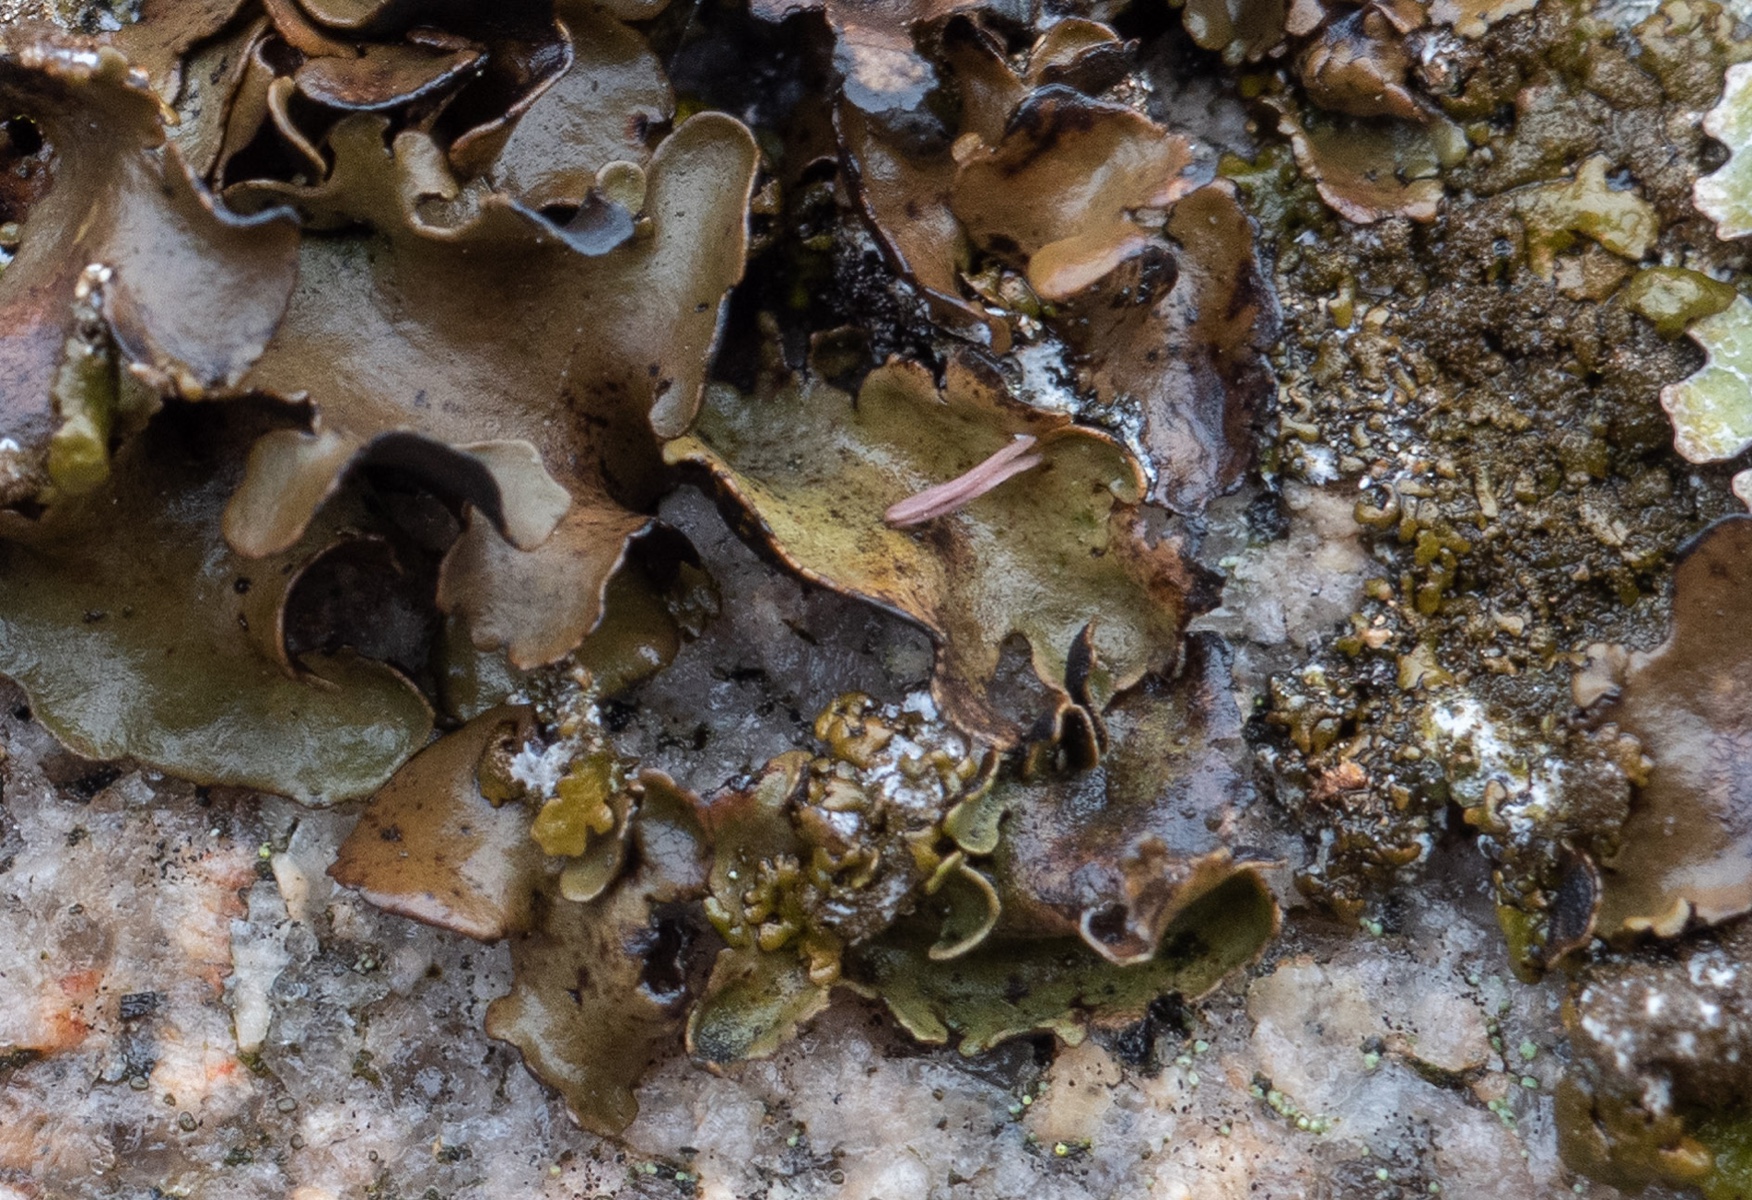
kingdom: Fungi
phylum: Ascomycota
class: Lecanoromycetes
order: Umbilicariales
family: Umbilicariaceae
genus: Umbilicaria
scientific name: Umbilicaria polyphylla
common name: glat navlelav
